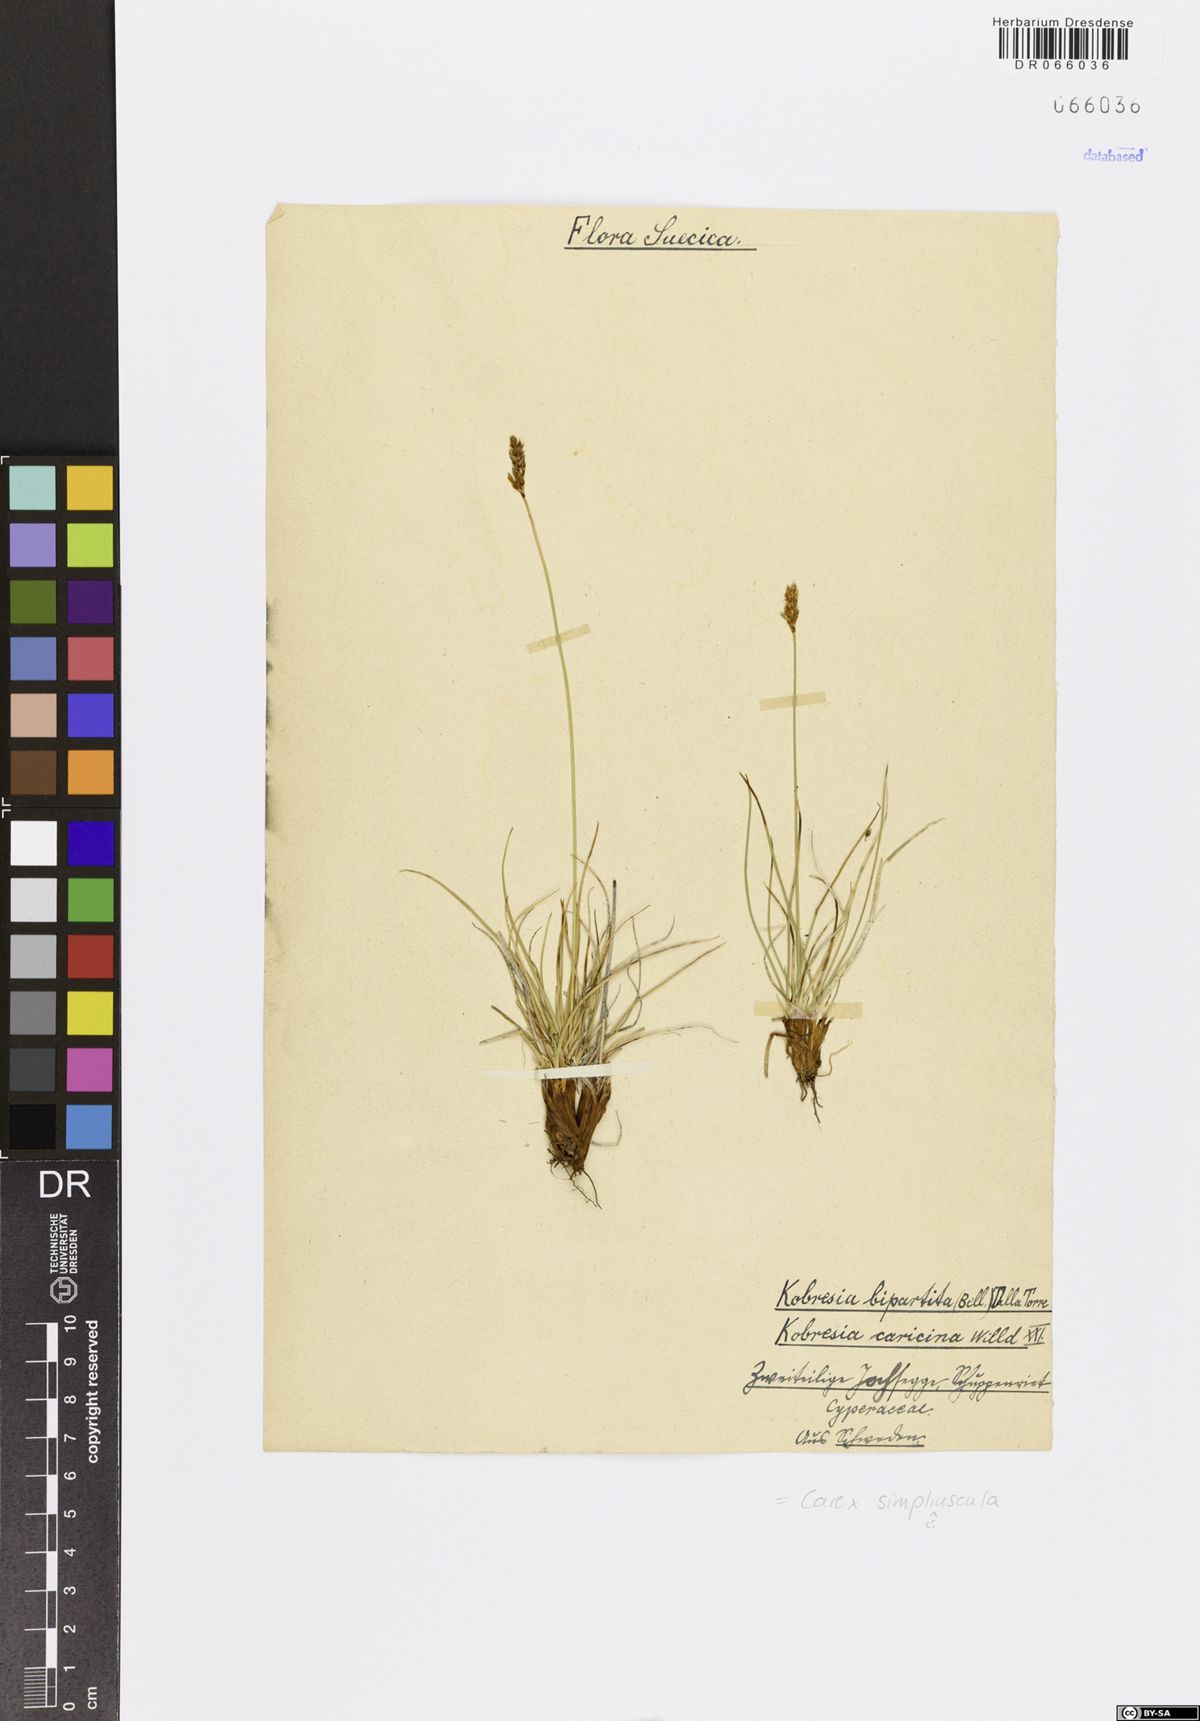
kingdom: Plantae
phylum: Tracheophyta
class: Liliopsida
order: Poales
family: Cyperaceae
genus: Carex
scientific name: Carex simpliciuscula
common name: Simple bog sedge
